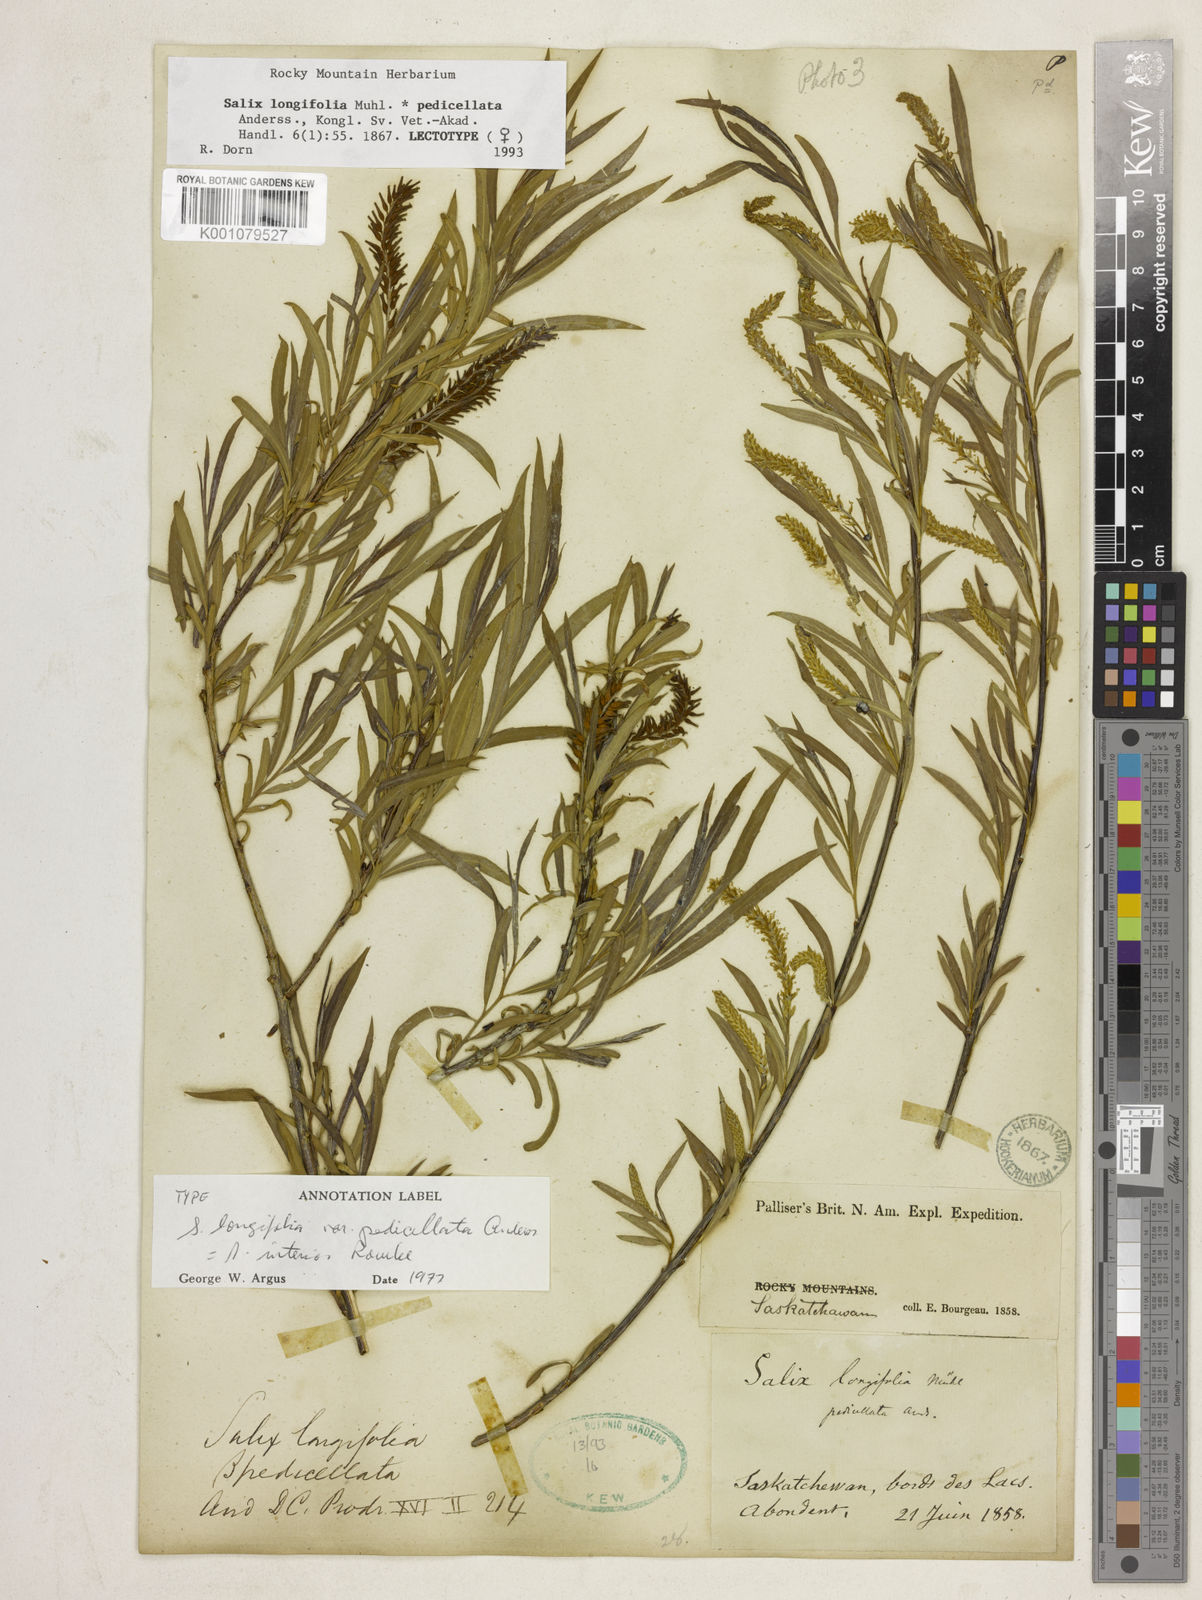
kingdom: Plantae
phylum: Tracheophyta
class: Magnoliopsida
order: Malpighiales
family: Salicaceae
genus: Salix
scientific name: Salix interior
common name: Sandbar willow
